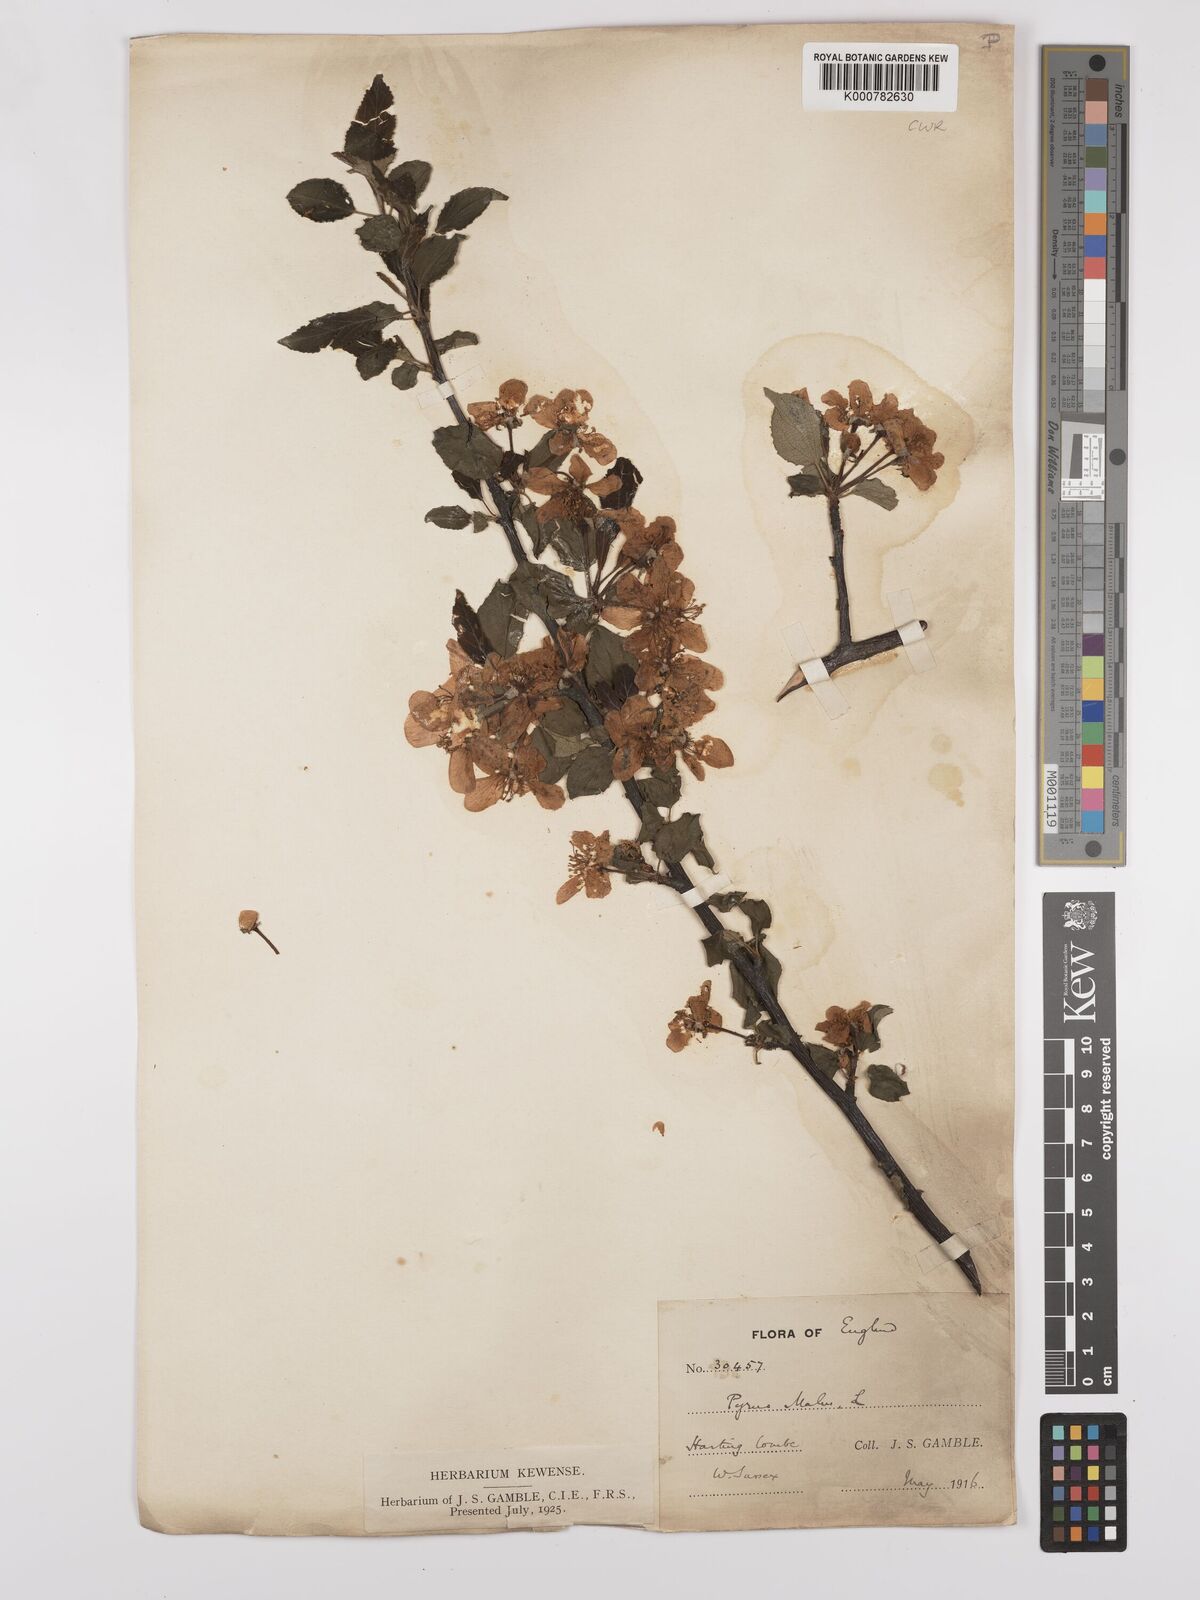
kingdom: Plantae
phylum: Tracheophyta
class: Magnoliopsida
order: Rosales
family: Rosaceae
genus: Malus
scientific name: Malus domestica
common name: Apple
